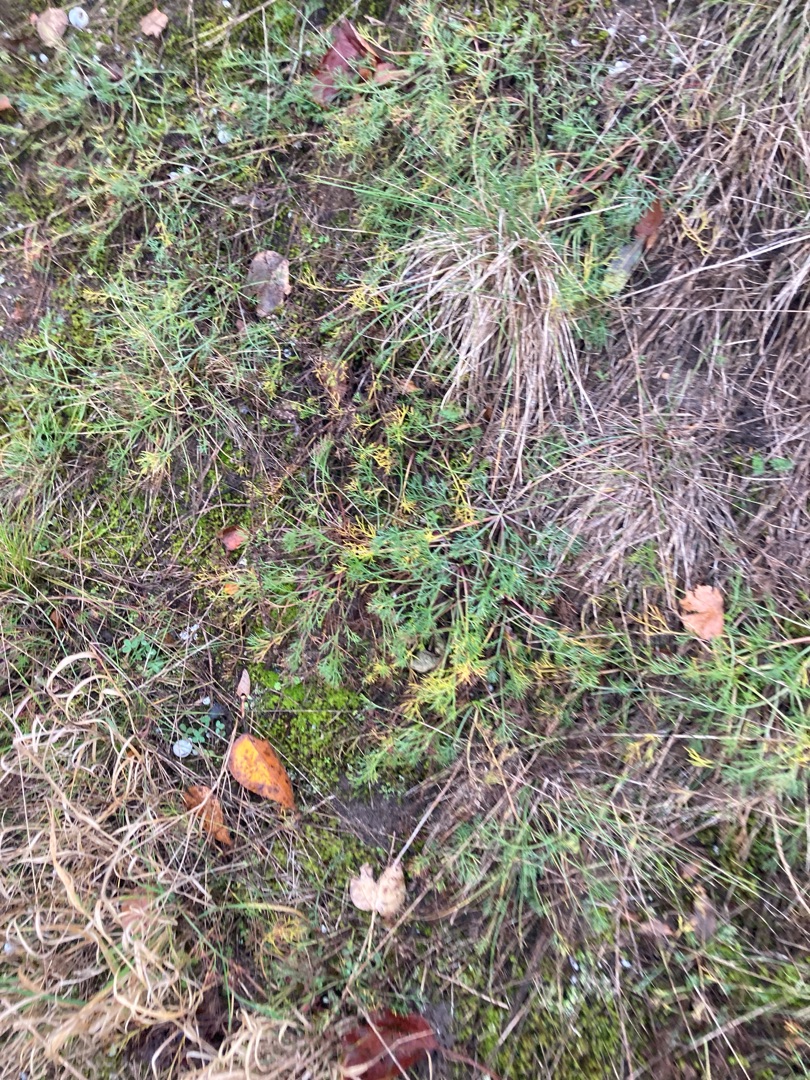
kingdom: Plantae
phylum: Tracheophyta
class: Magnoliopsida
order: Asterales
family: Asteraceae
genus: Artemisia
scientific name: Artemisia campestris
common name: Mark-bynke
